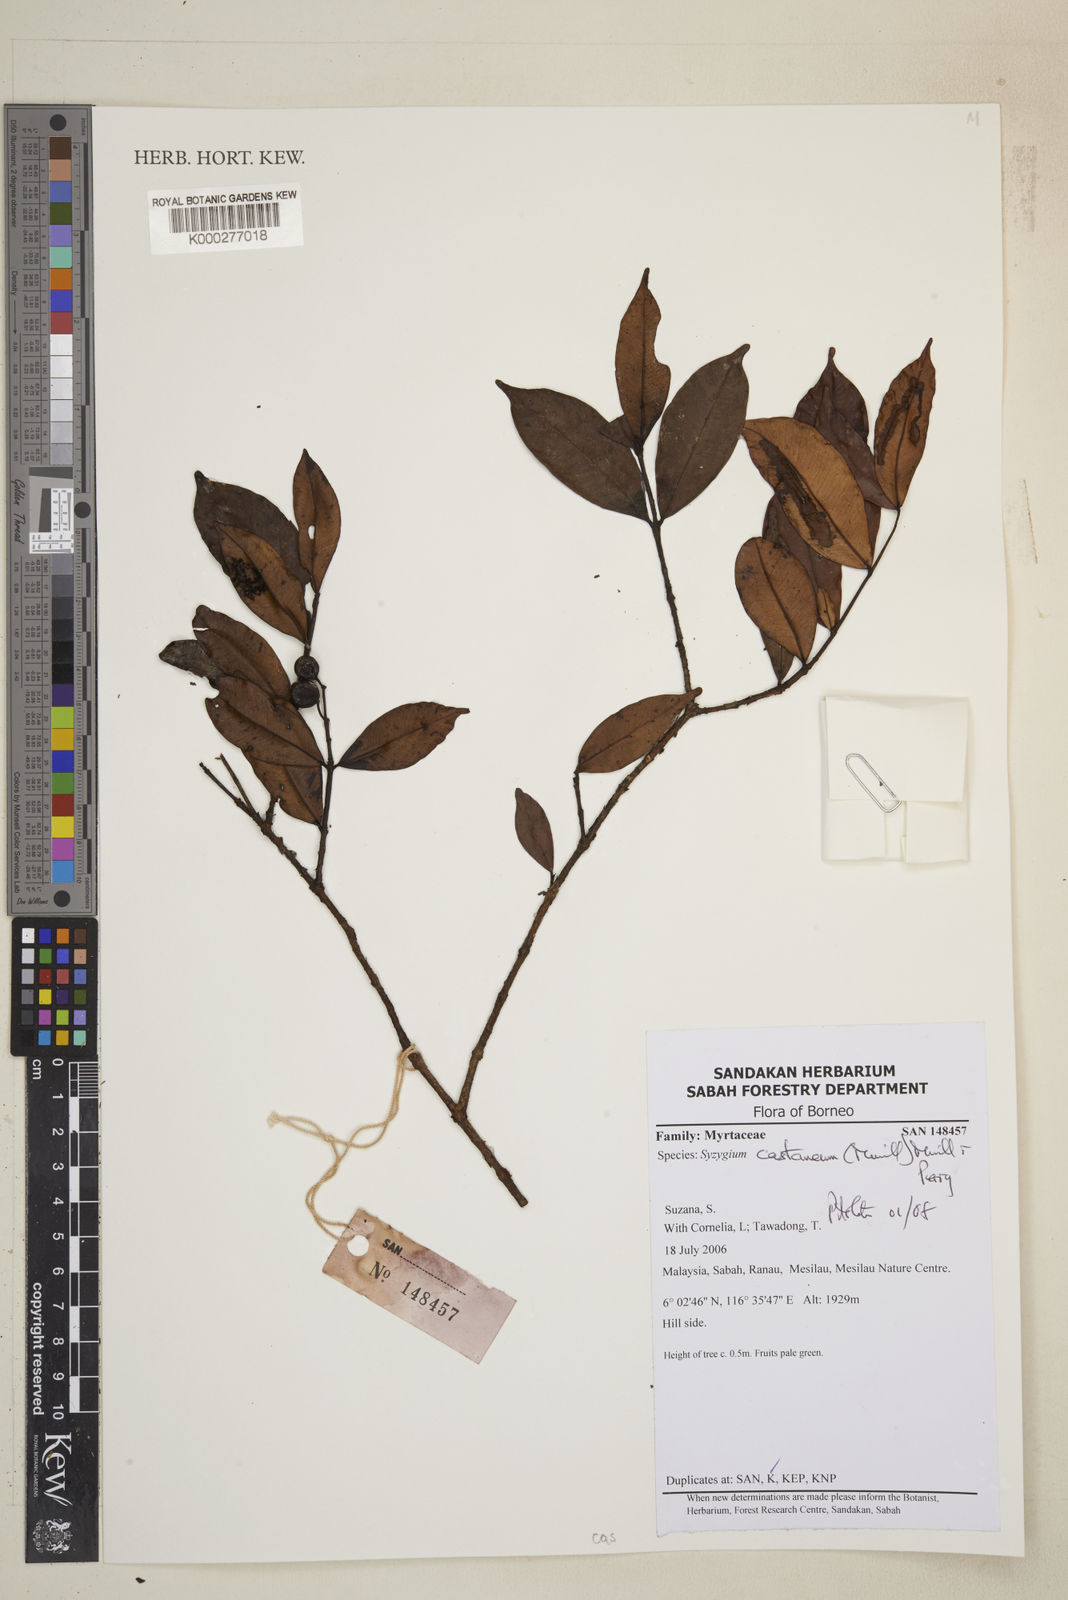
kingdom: Plantae
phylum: Tracheophyta
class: Magnoliopsida
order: Myrtales
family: Myrtaceae
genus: Syzygium
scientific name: Syzygium castaneum
